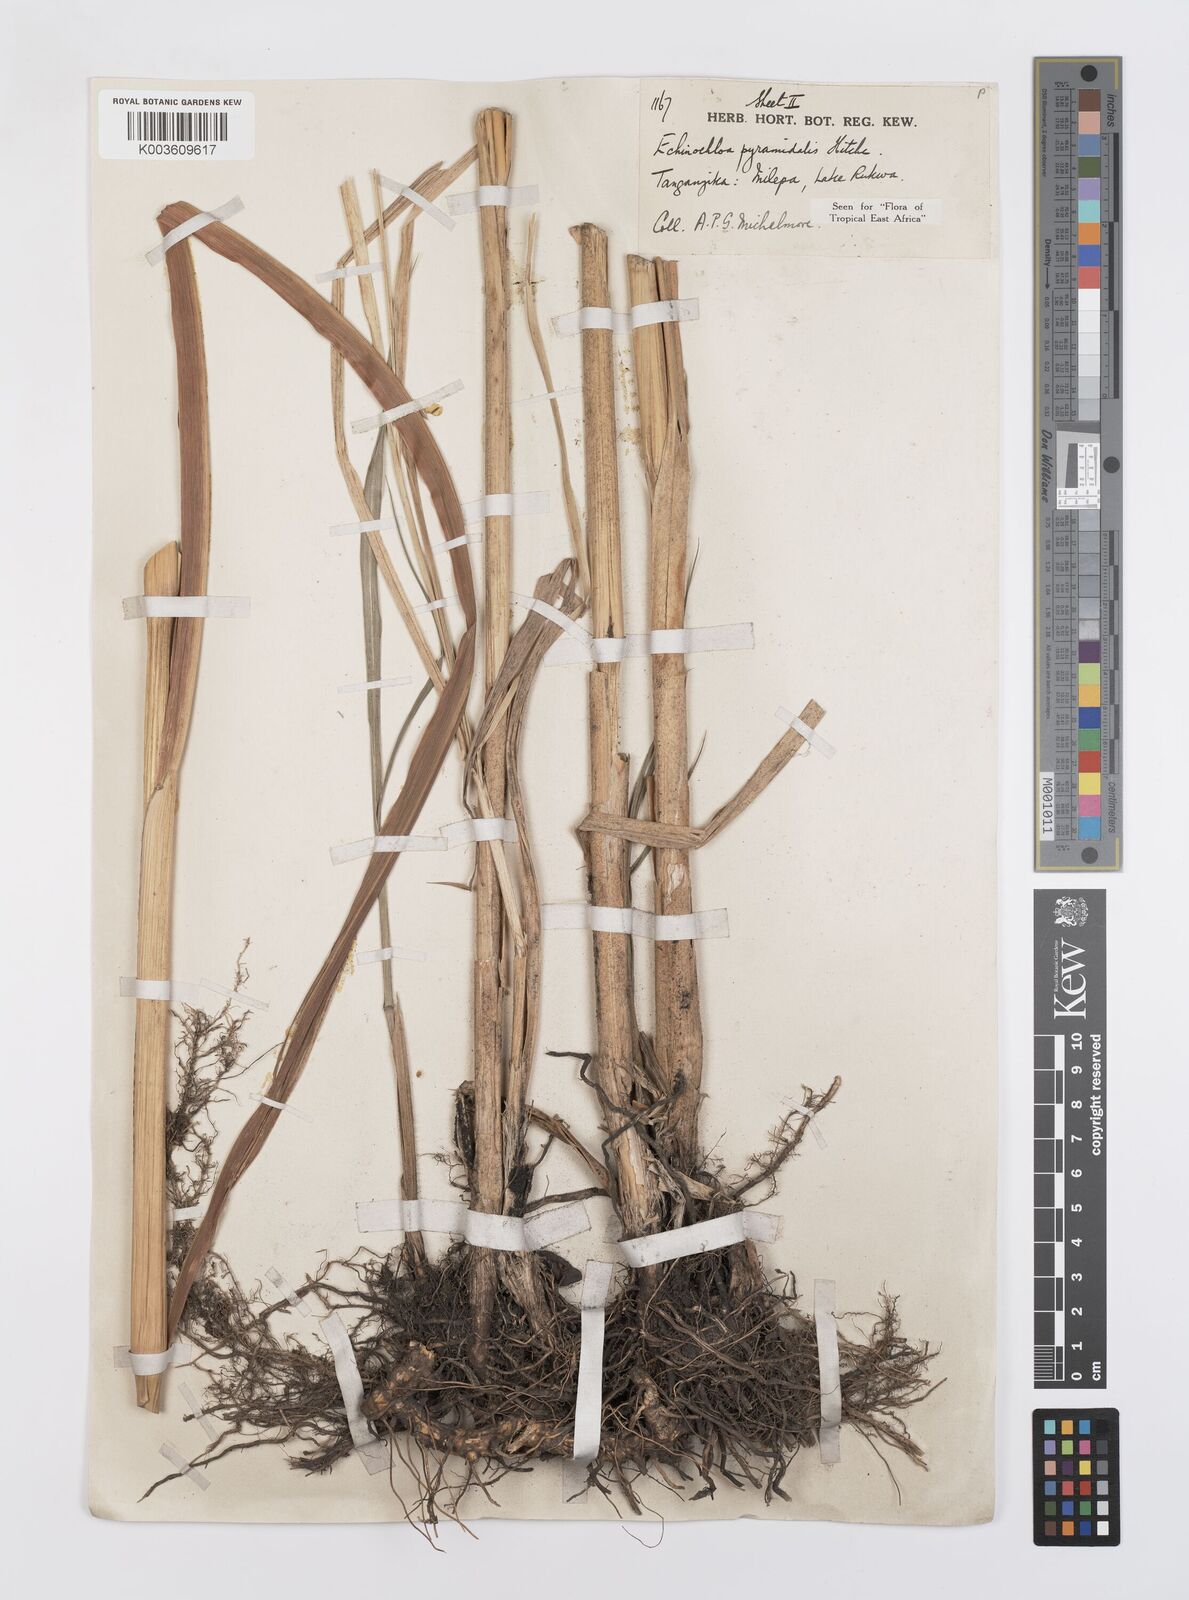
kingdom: Plantae
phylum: Tracheophyta
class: Liliopsida
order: Poales
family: Poaceae
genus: Echinochloa
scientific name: Echinochloa pyramidalis
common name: Antelope grass
